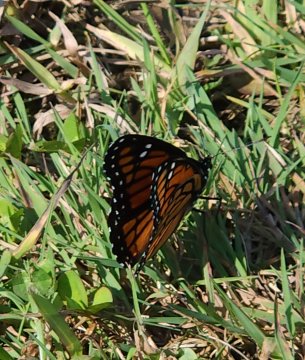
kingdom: Animalia
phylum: Arthropoda
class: Insecta
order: Lepidoptera
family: Nymphalidae
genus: Limenitis
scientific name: Limenitis archippus
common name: Viceroy
